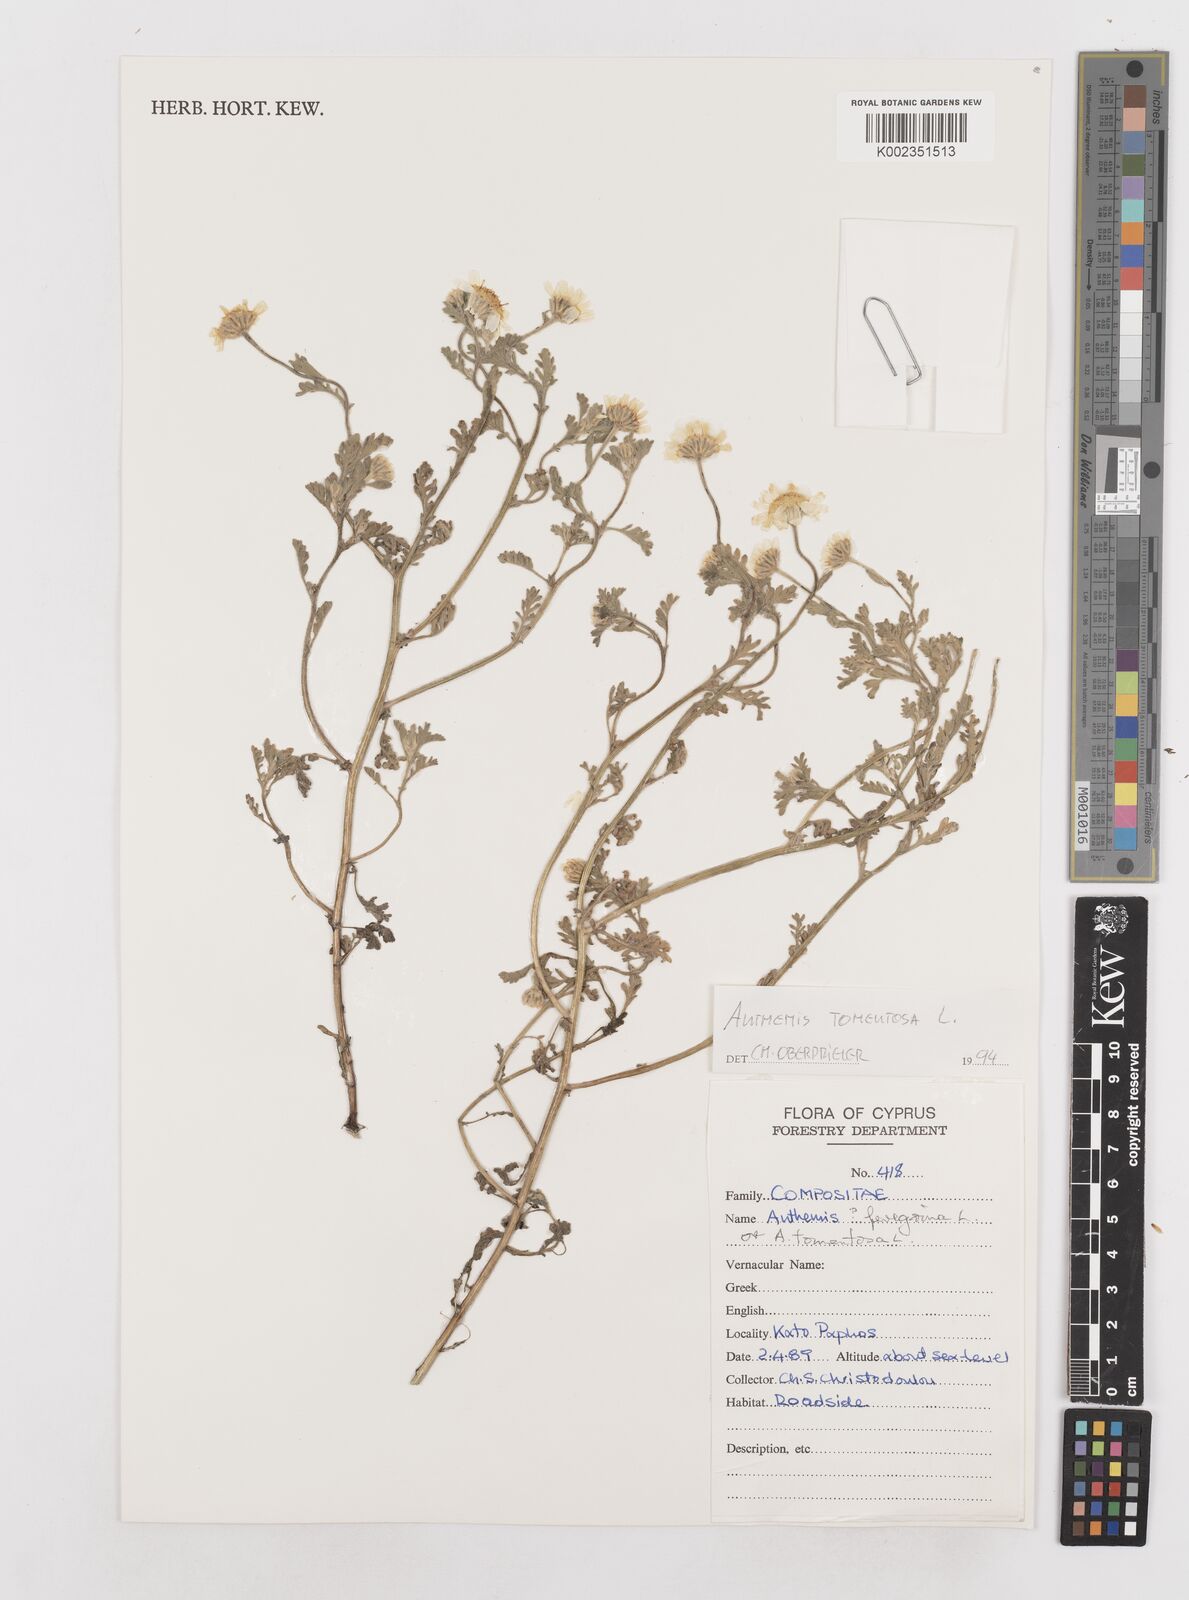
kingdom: Plantae
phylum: Tracheophyta
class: Magnoliopsida
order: Asterales
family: Asteraceae
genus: Anthemis
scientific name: Anthemis tomentosa
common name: Woolly chamomile
